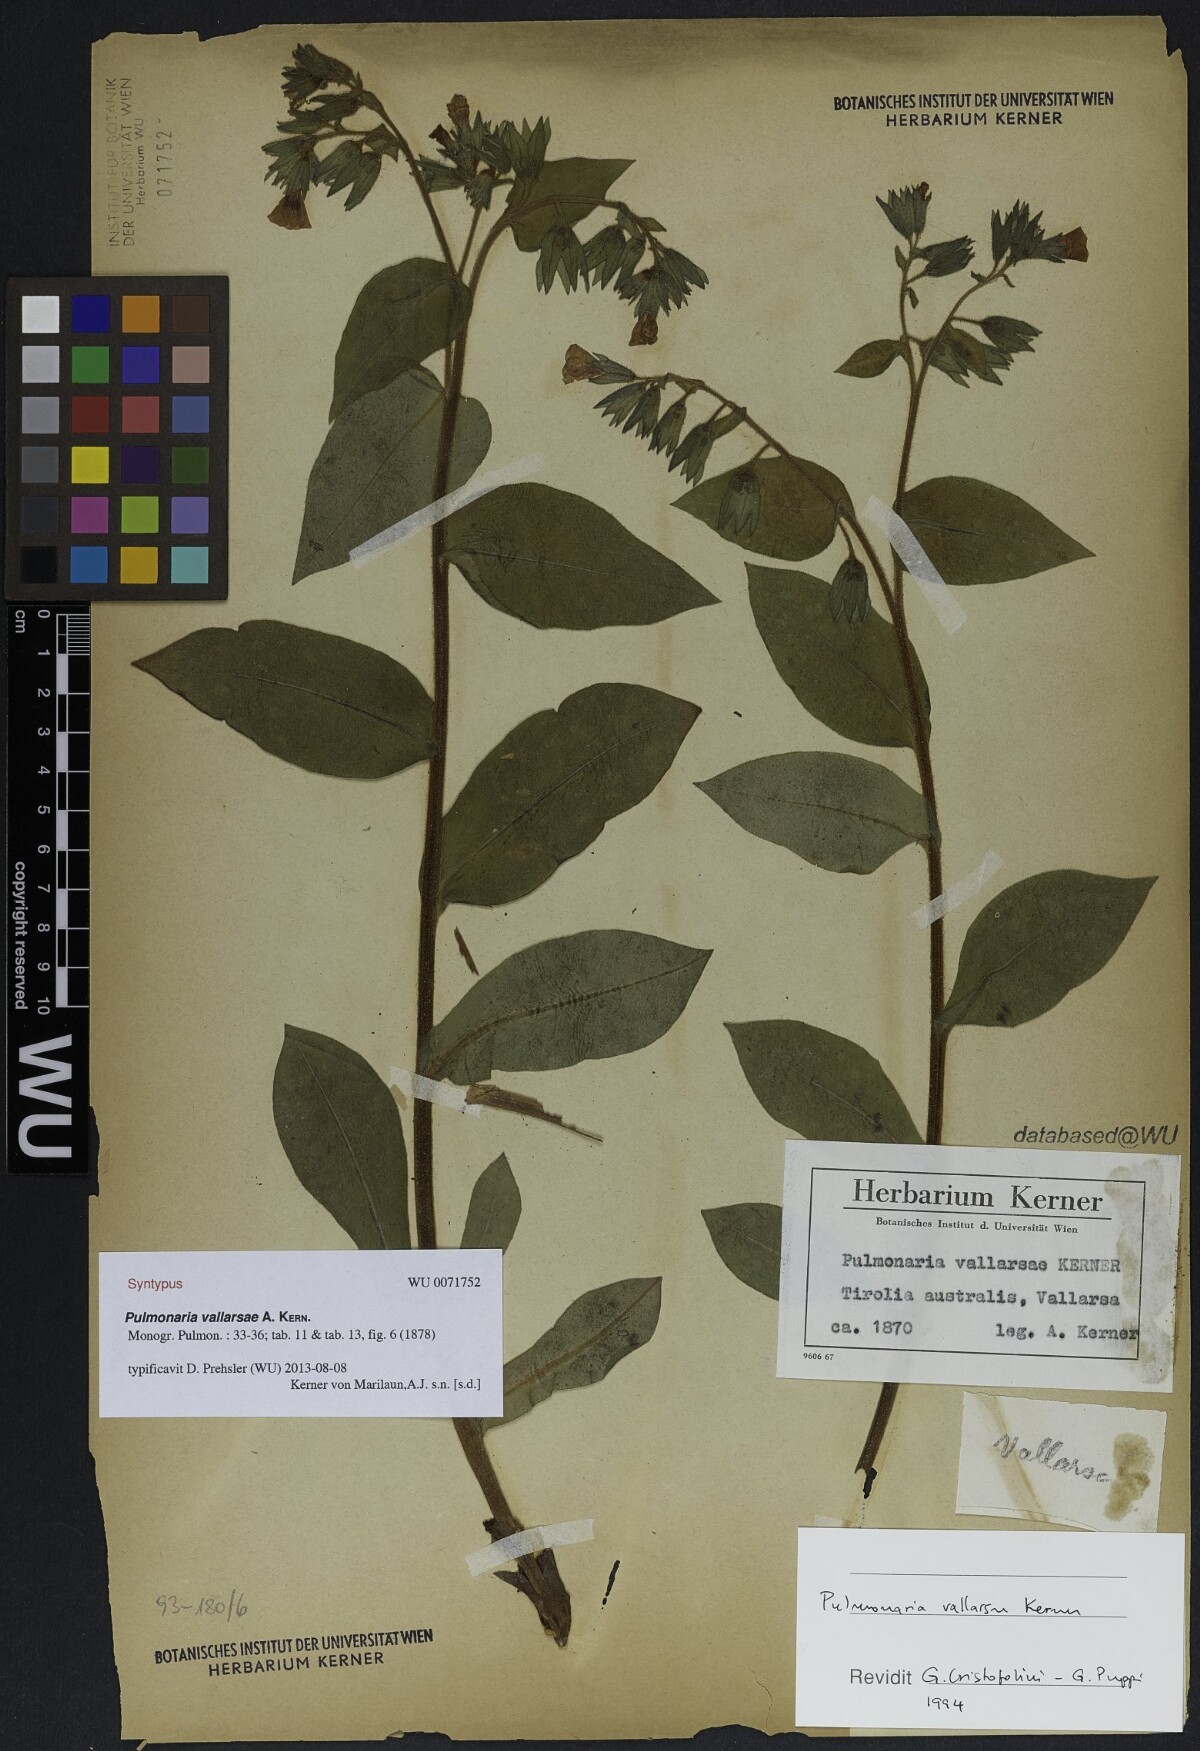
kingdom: Plantae
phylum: Tracheophyta
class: Magnoliopsida
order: Boraginales
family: Boraginaceae
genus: Pulmonaria
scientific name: Pulmonaria hirta
